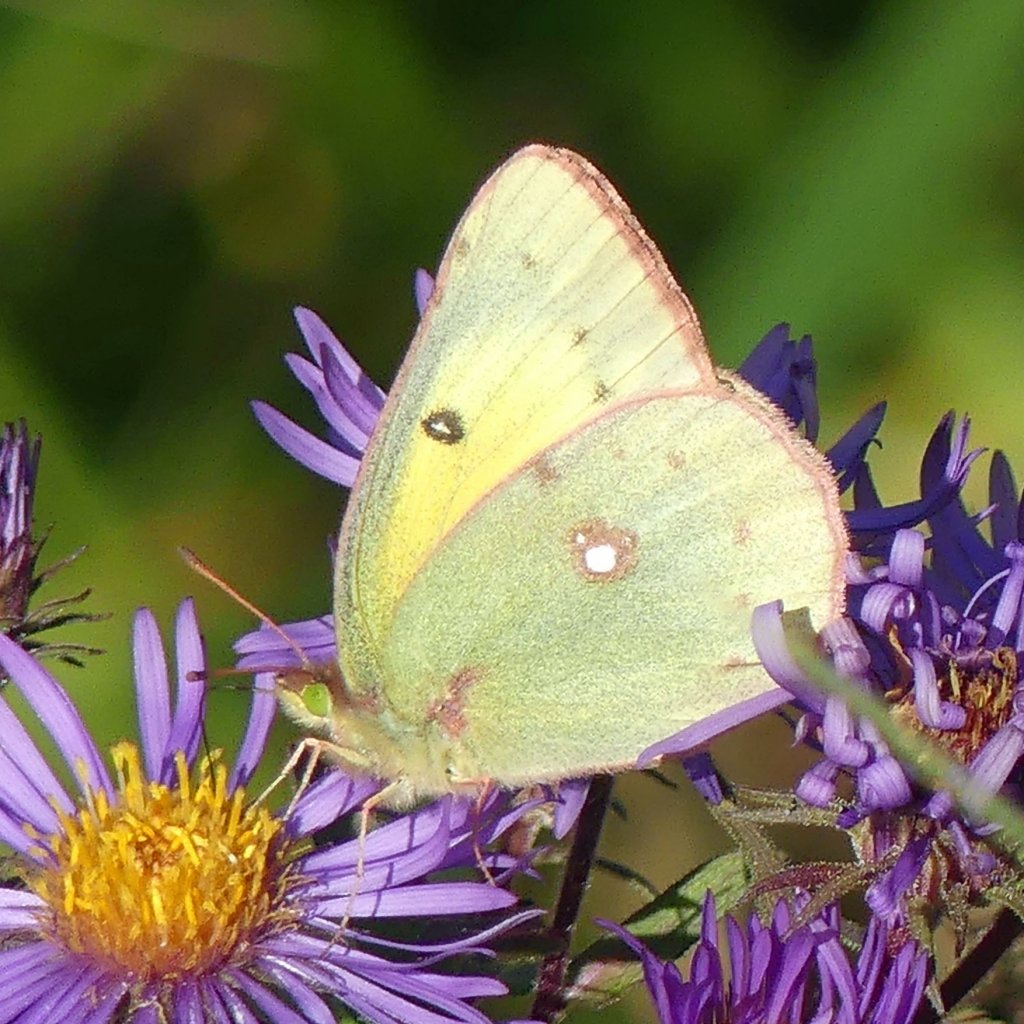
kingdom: Animalia
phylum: Arthropoda
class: Insecta
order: Lepidoptera
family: Pieridae
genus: Colias
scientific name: Colias philodice
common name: Clouded Sulphur
